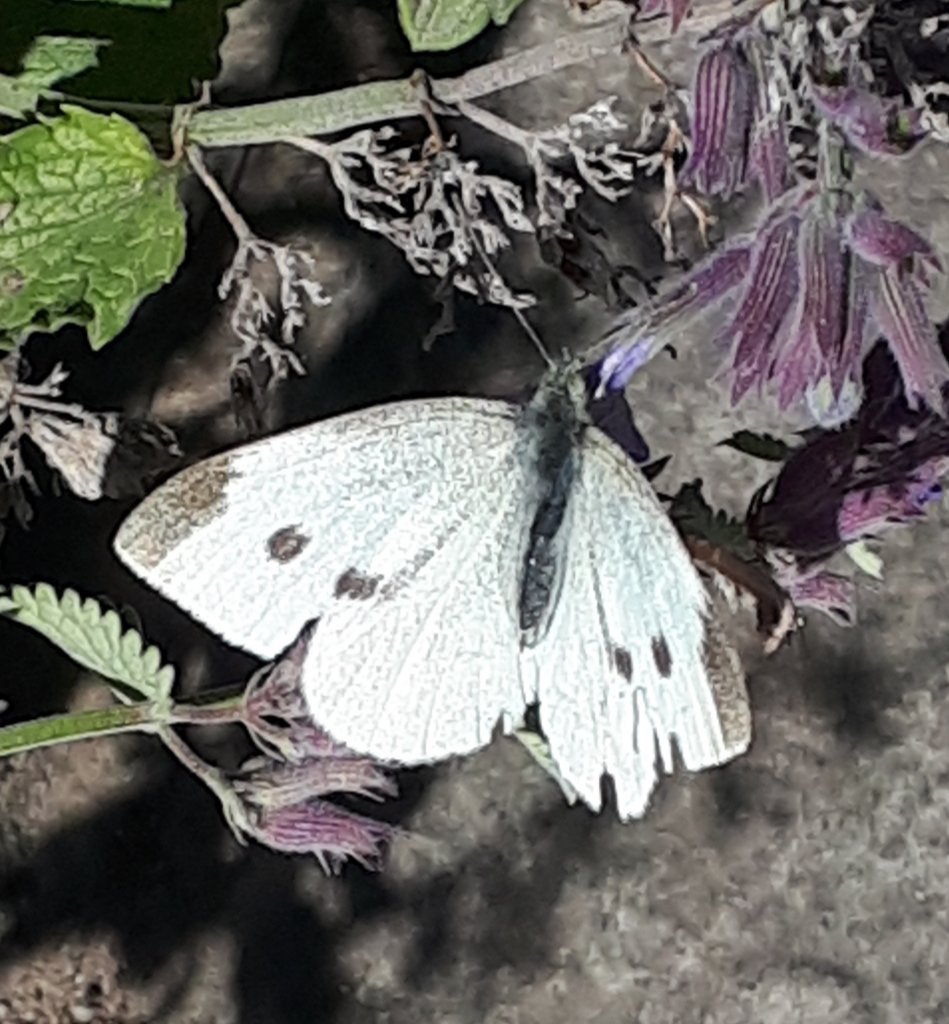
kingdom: Animalia
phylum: Arthropoda
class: Insecta
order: Lepidoptera
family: Pieridae
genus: Pieris
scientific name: Pieris rapae
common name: Cabbage White
